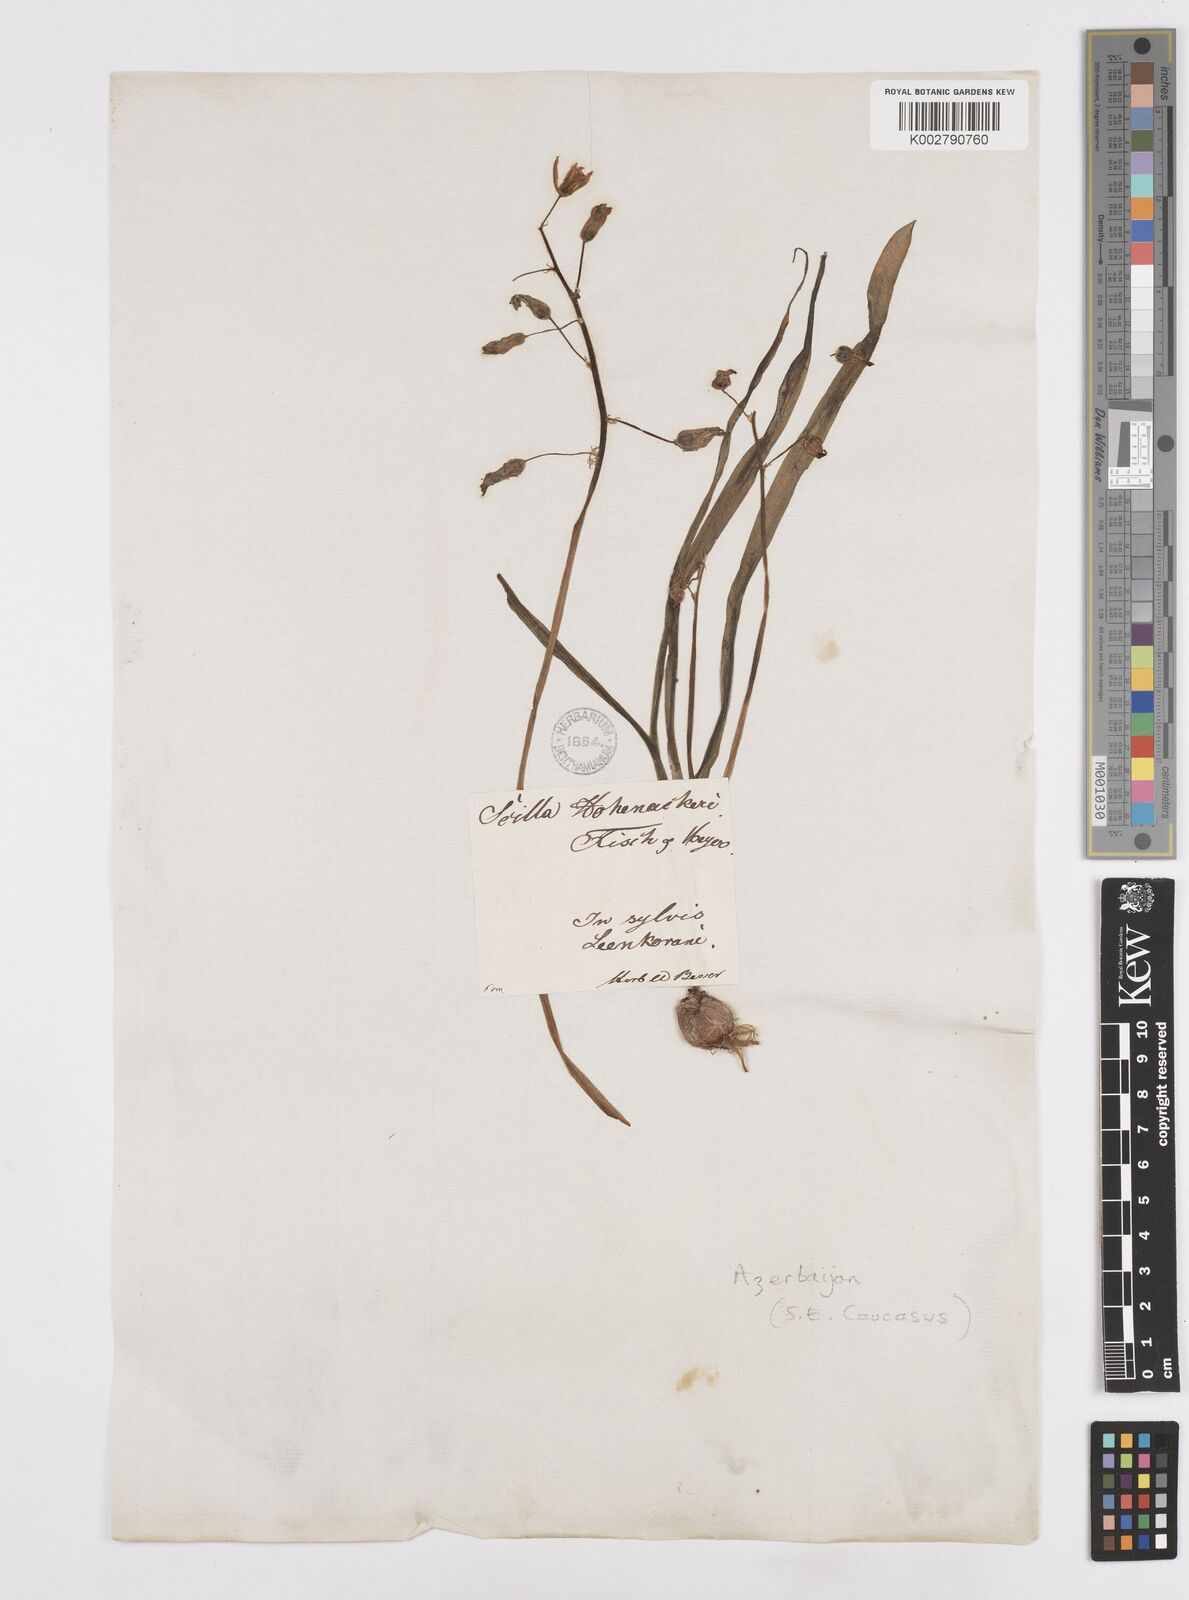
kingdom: Plantae
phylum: Tracheophyta
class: Liliopsida
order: Asparagales
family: Asparagaceae
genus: Fessia
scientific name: Fessia hohenackeri
